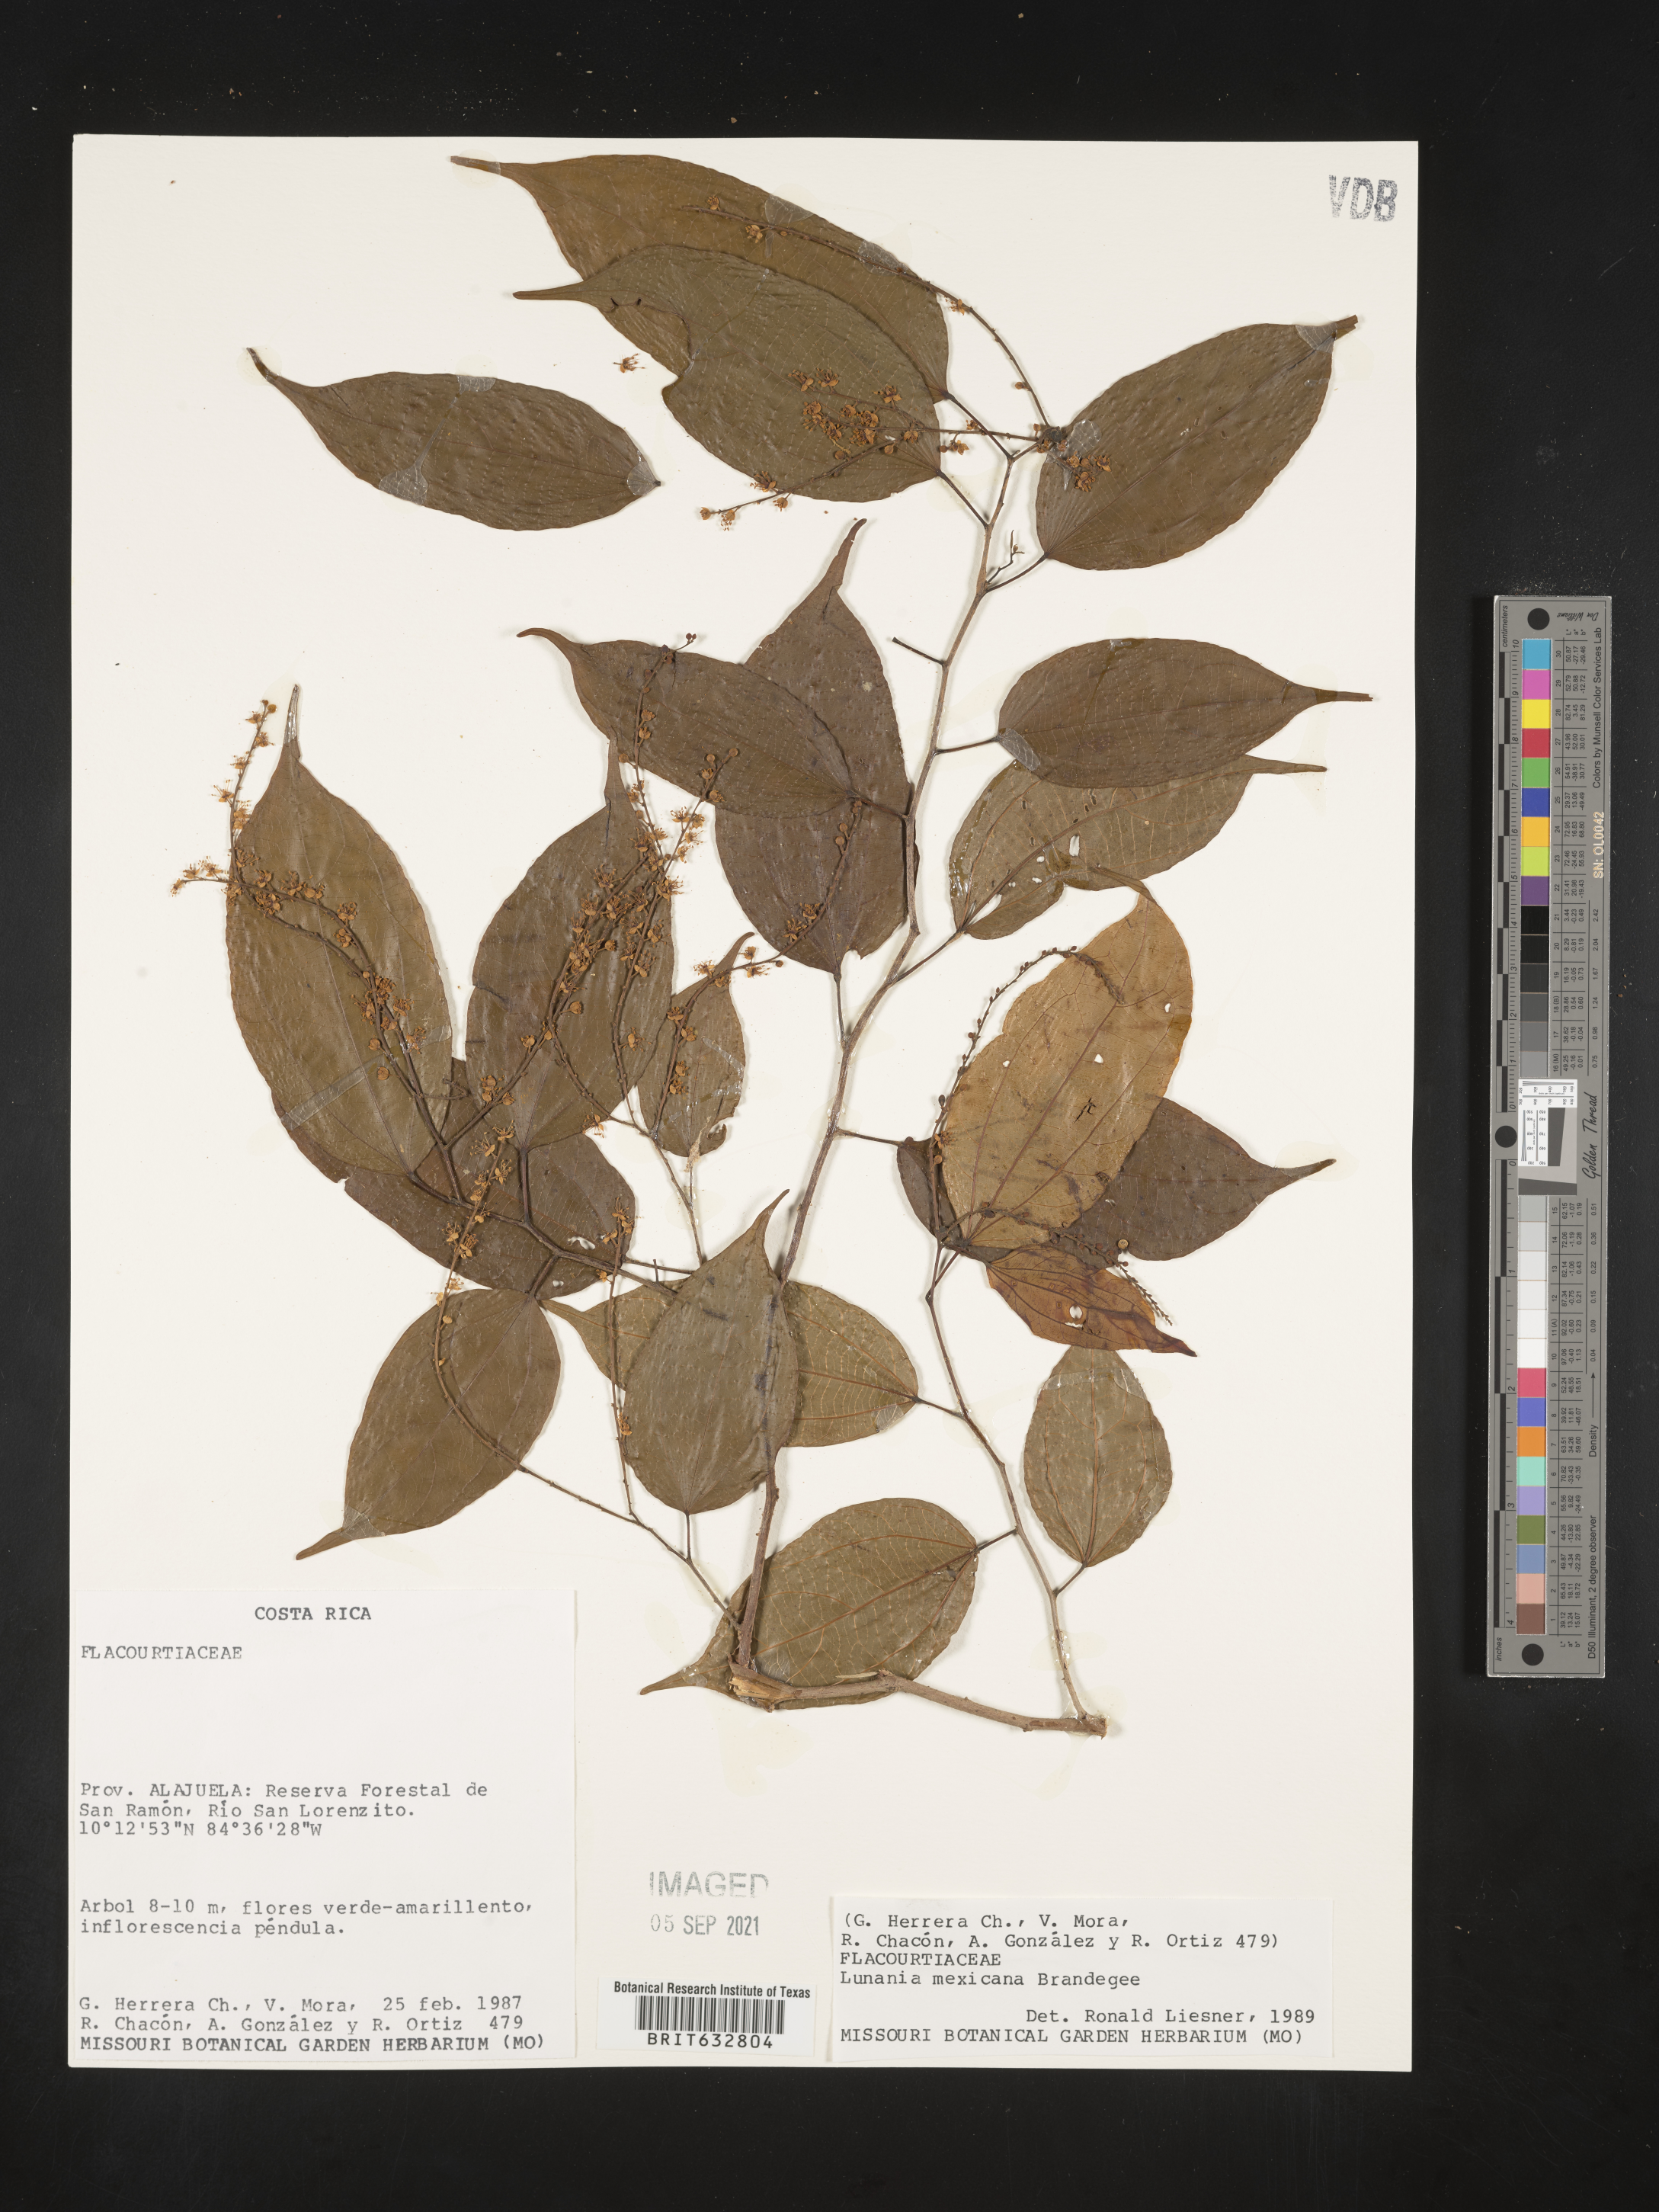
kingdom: Plantae
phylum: Tracheophyta
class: Magnoliopsida
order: Malpighiales
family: Salicaceae
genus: Lunania
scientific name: Lunania
